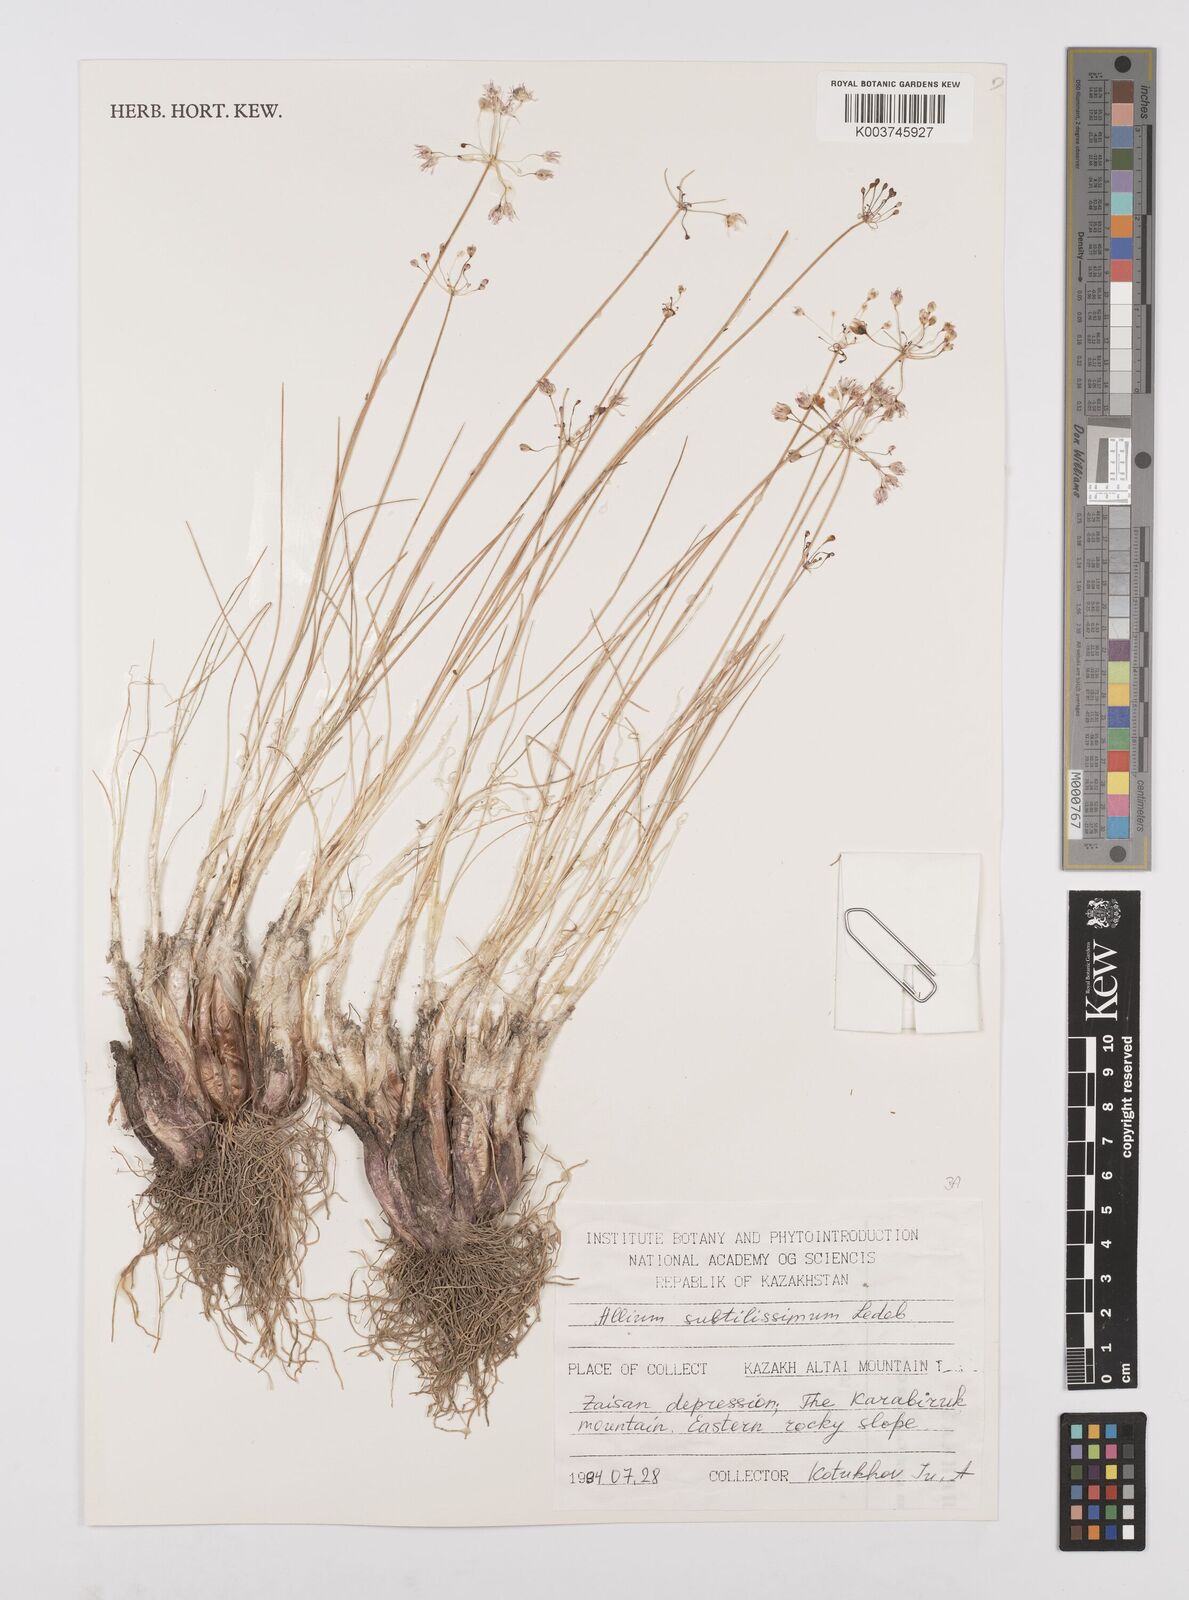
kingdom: Plantae
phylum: Tracheophyta
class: Liliopsida
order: Asparagales
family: Amaryllidaceae
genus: Allium
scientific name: Allium subtilissimum
